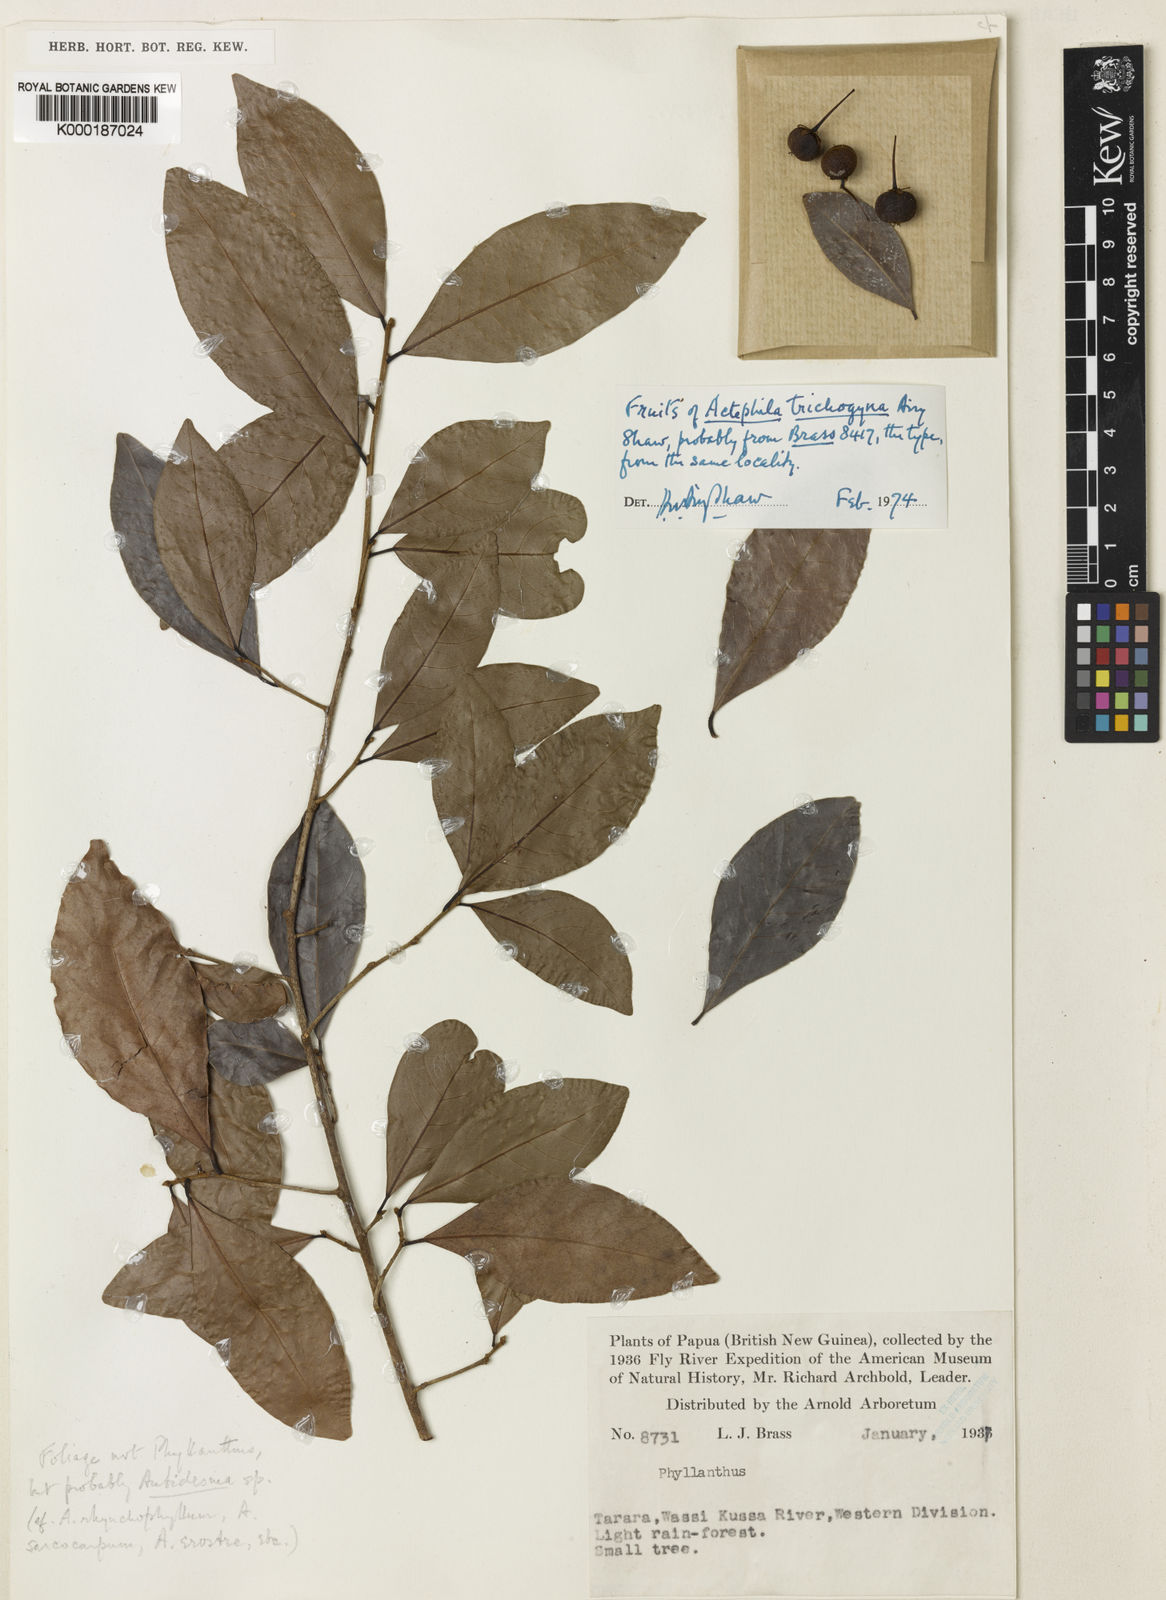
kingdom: Plantae
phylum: Tracheophyta
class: Magnoliopsida
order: Malpighiales
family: Phyllanthaceae
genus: Actephila
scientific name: Actephila trichogyna
